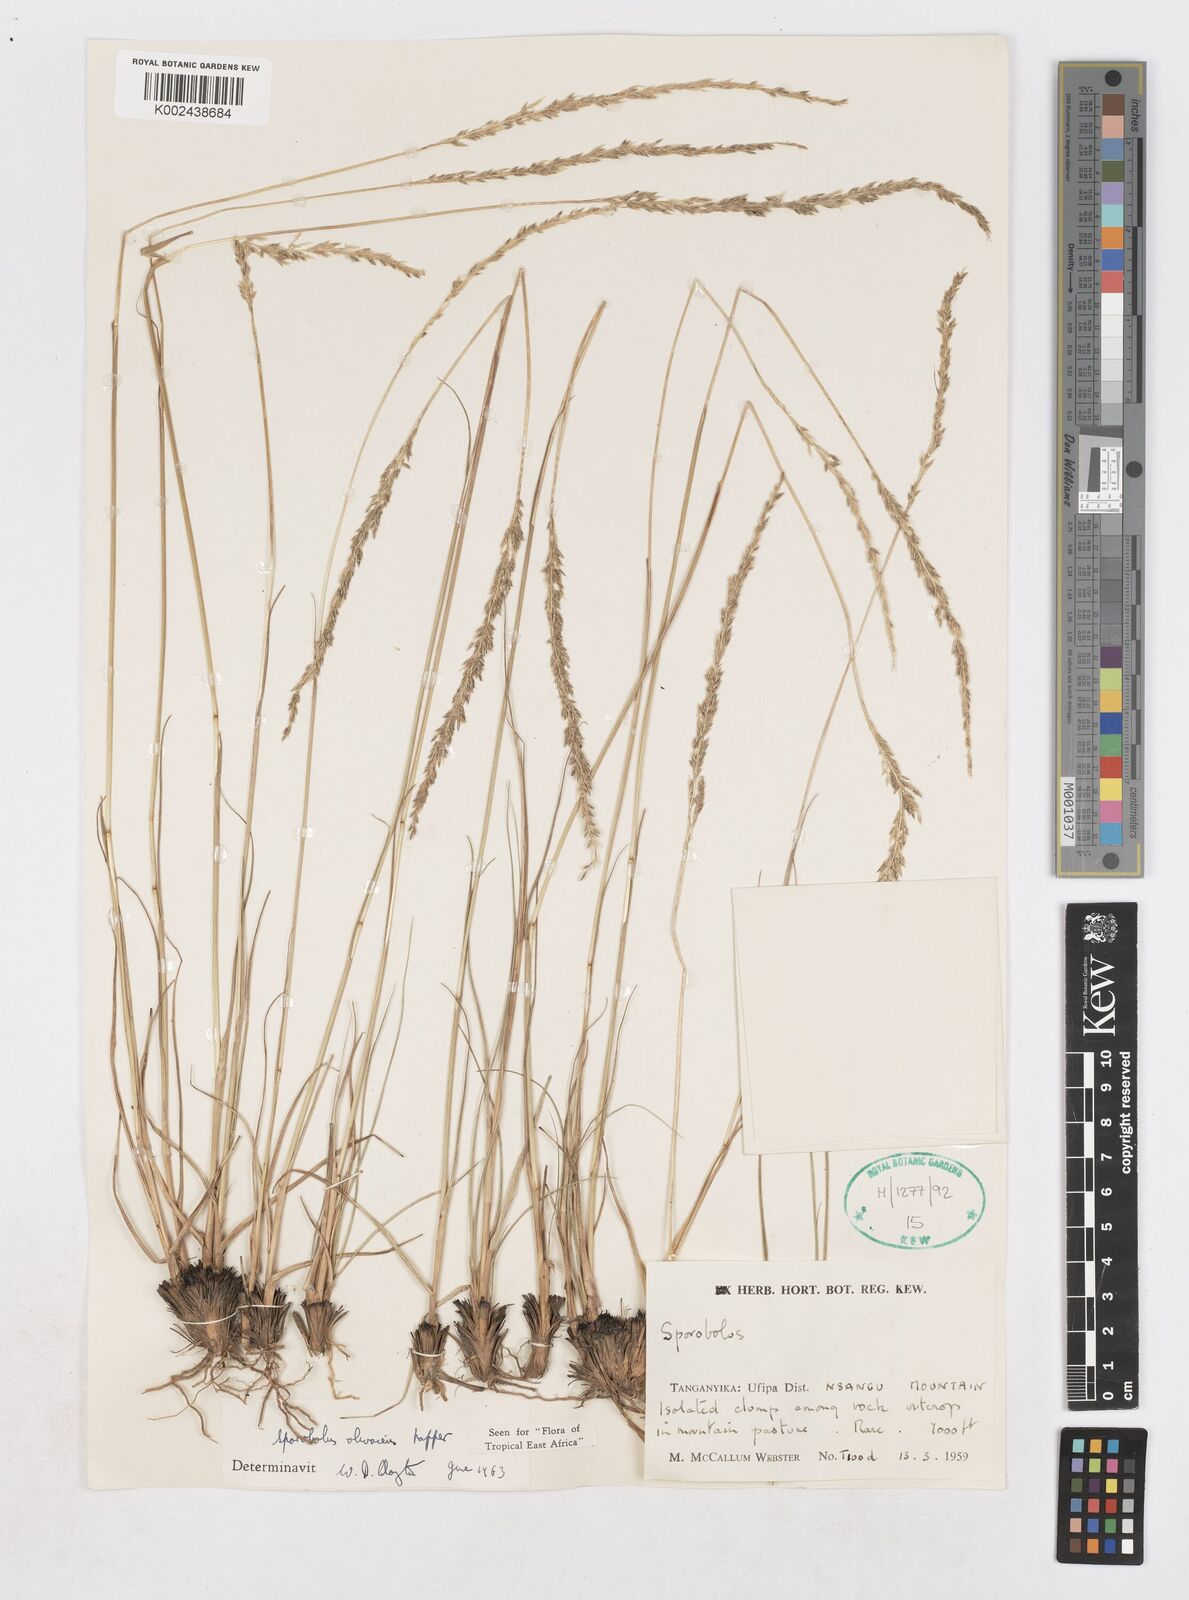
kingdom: Plantae
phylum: Tracheophyta
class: Liliopsida
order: Poales
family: Poaceae
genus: Sporobolus
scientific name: Sporobolus olivaceus
